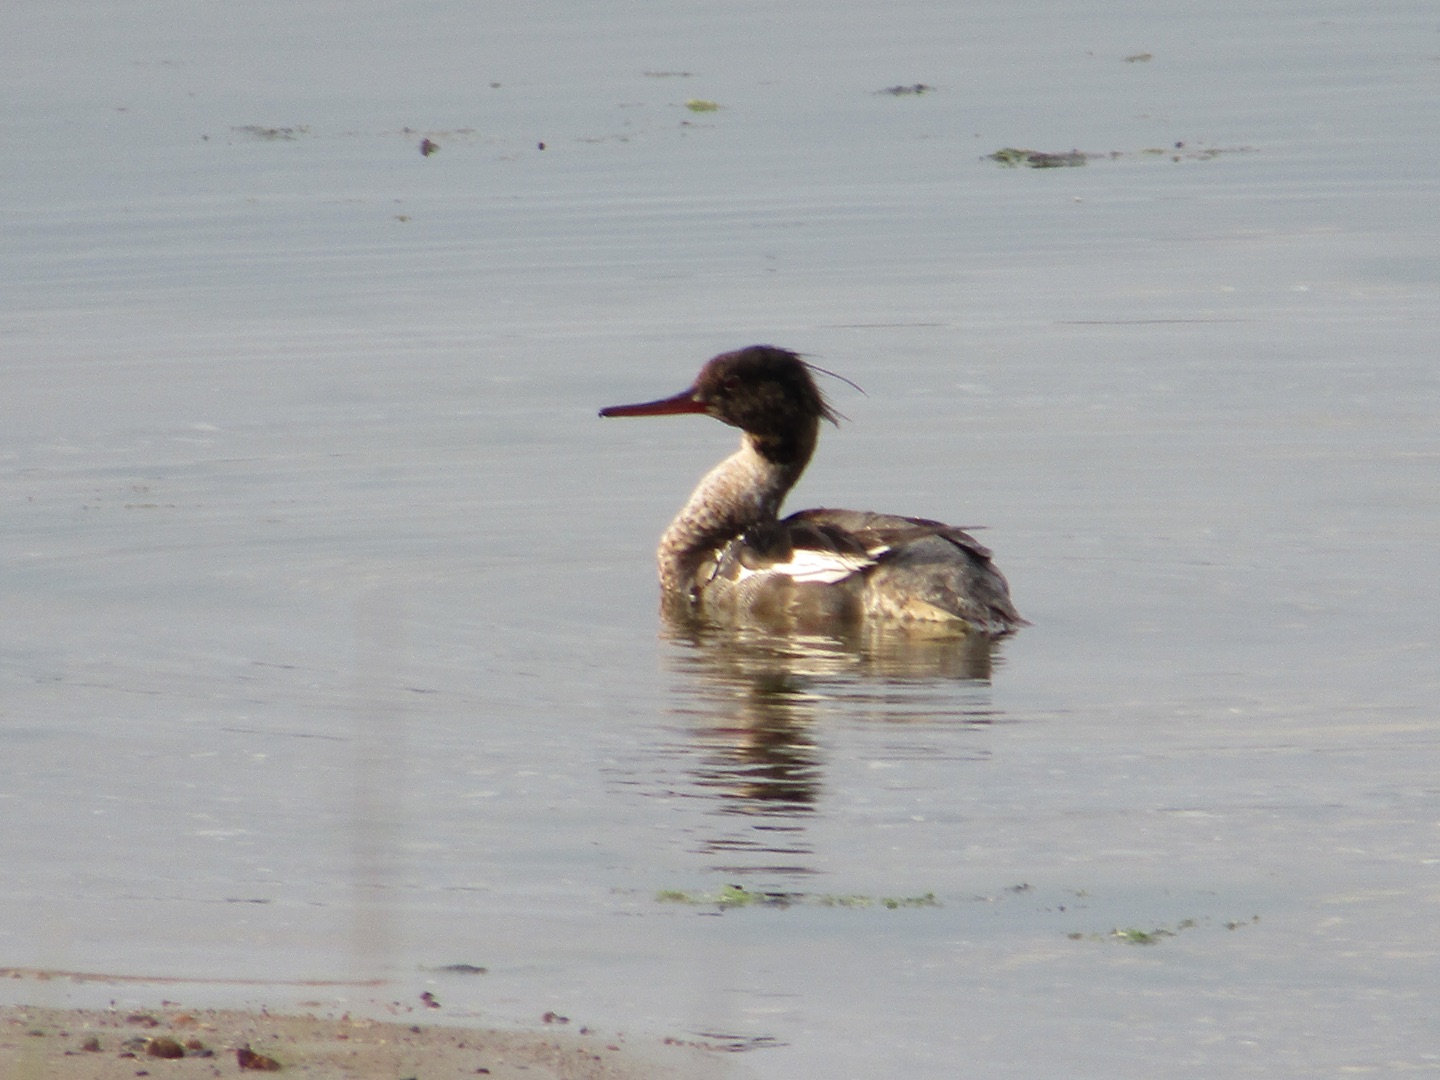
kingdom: Animalia
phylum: Chordata
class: Aves
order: Anseriformes
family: Anatidae
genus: Mergus
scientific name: Mergus serrator
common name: Toppet skallesluger
